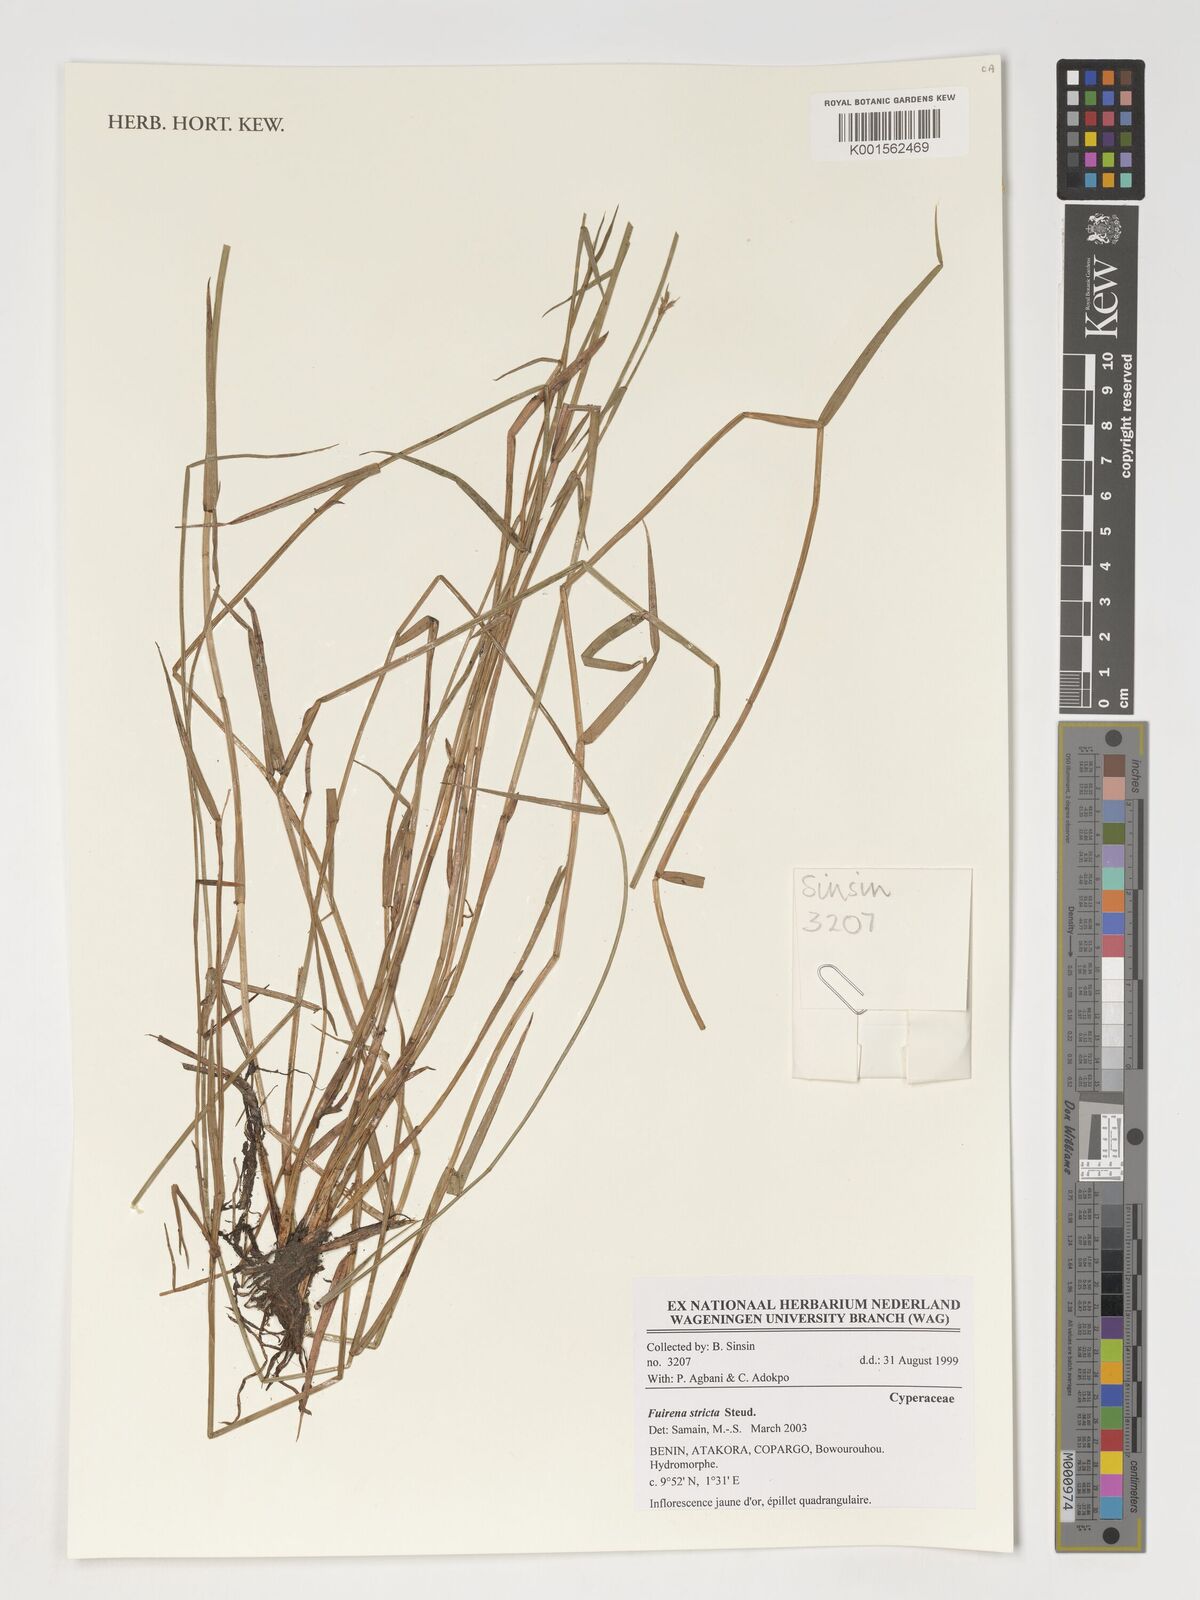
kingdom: Plantae
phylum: Tracheophyta
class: Liliopsida
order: Poales
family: Cyperaceae
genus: Fuirena
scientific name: Fuirena stricta
